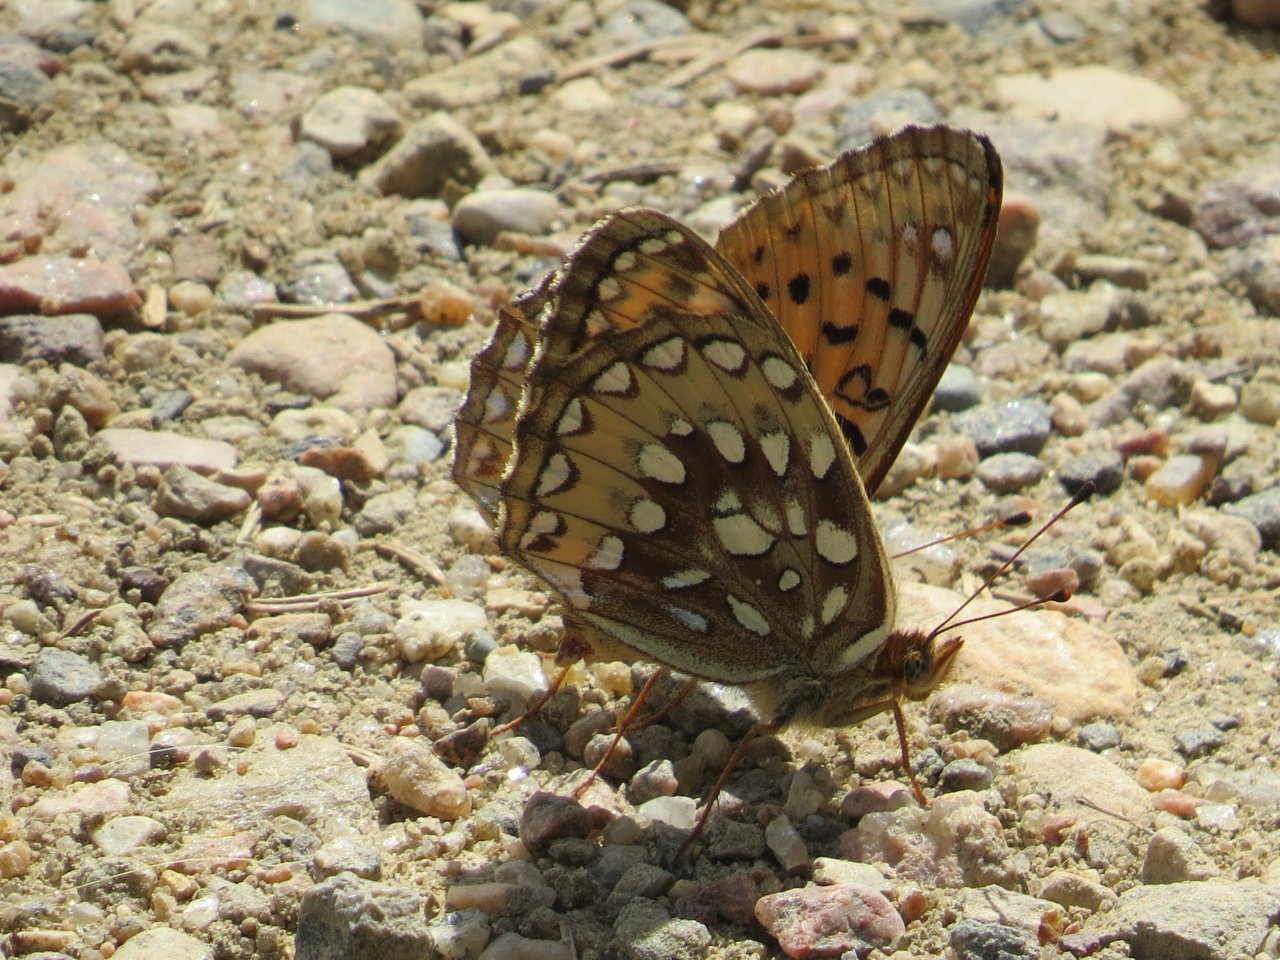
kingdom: Animalia
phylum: Arthropoda
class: Insecta
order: Lepidoptera
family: Nymphalidae
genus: Speyeria
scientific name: Speyeria cybele
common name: Great Spangled Fritillary
